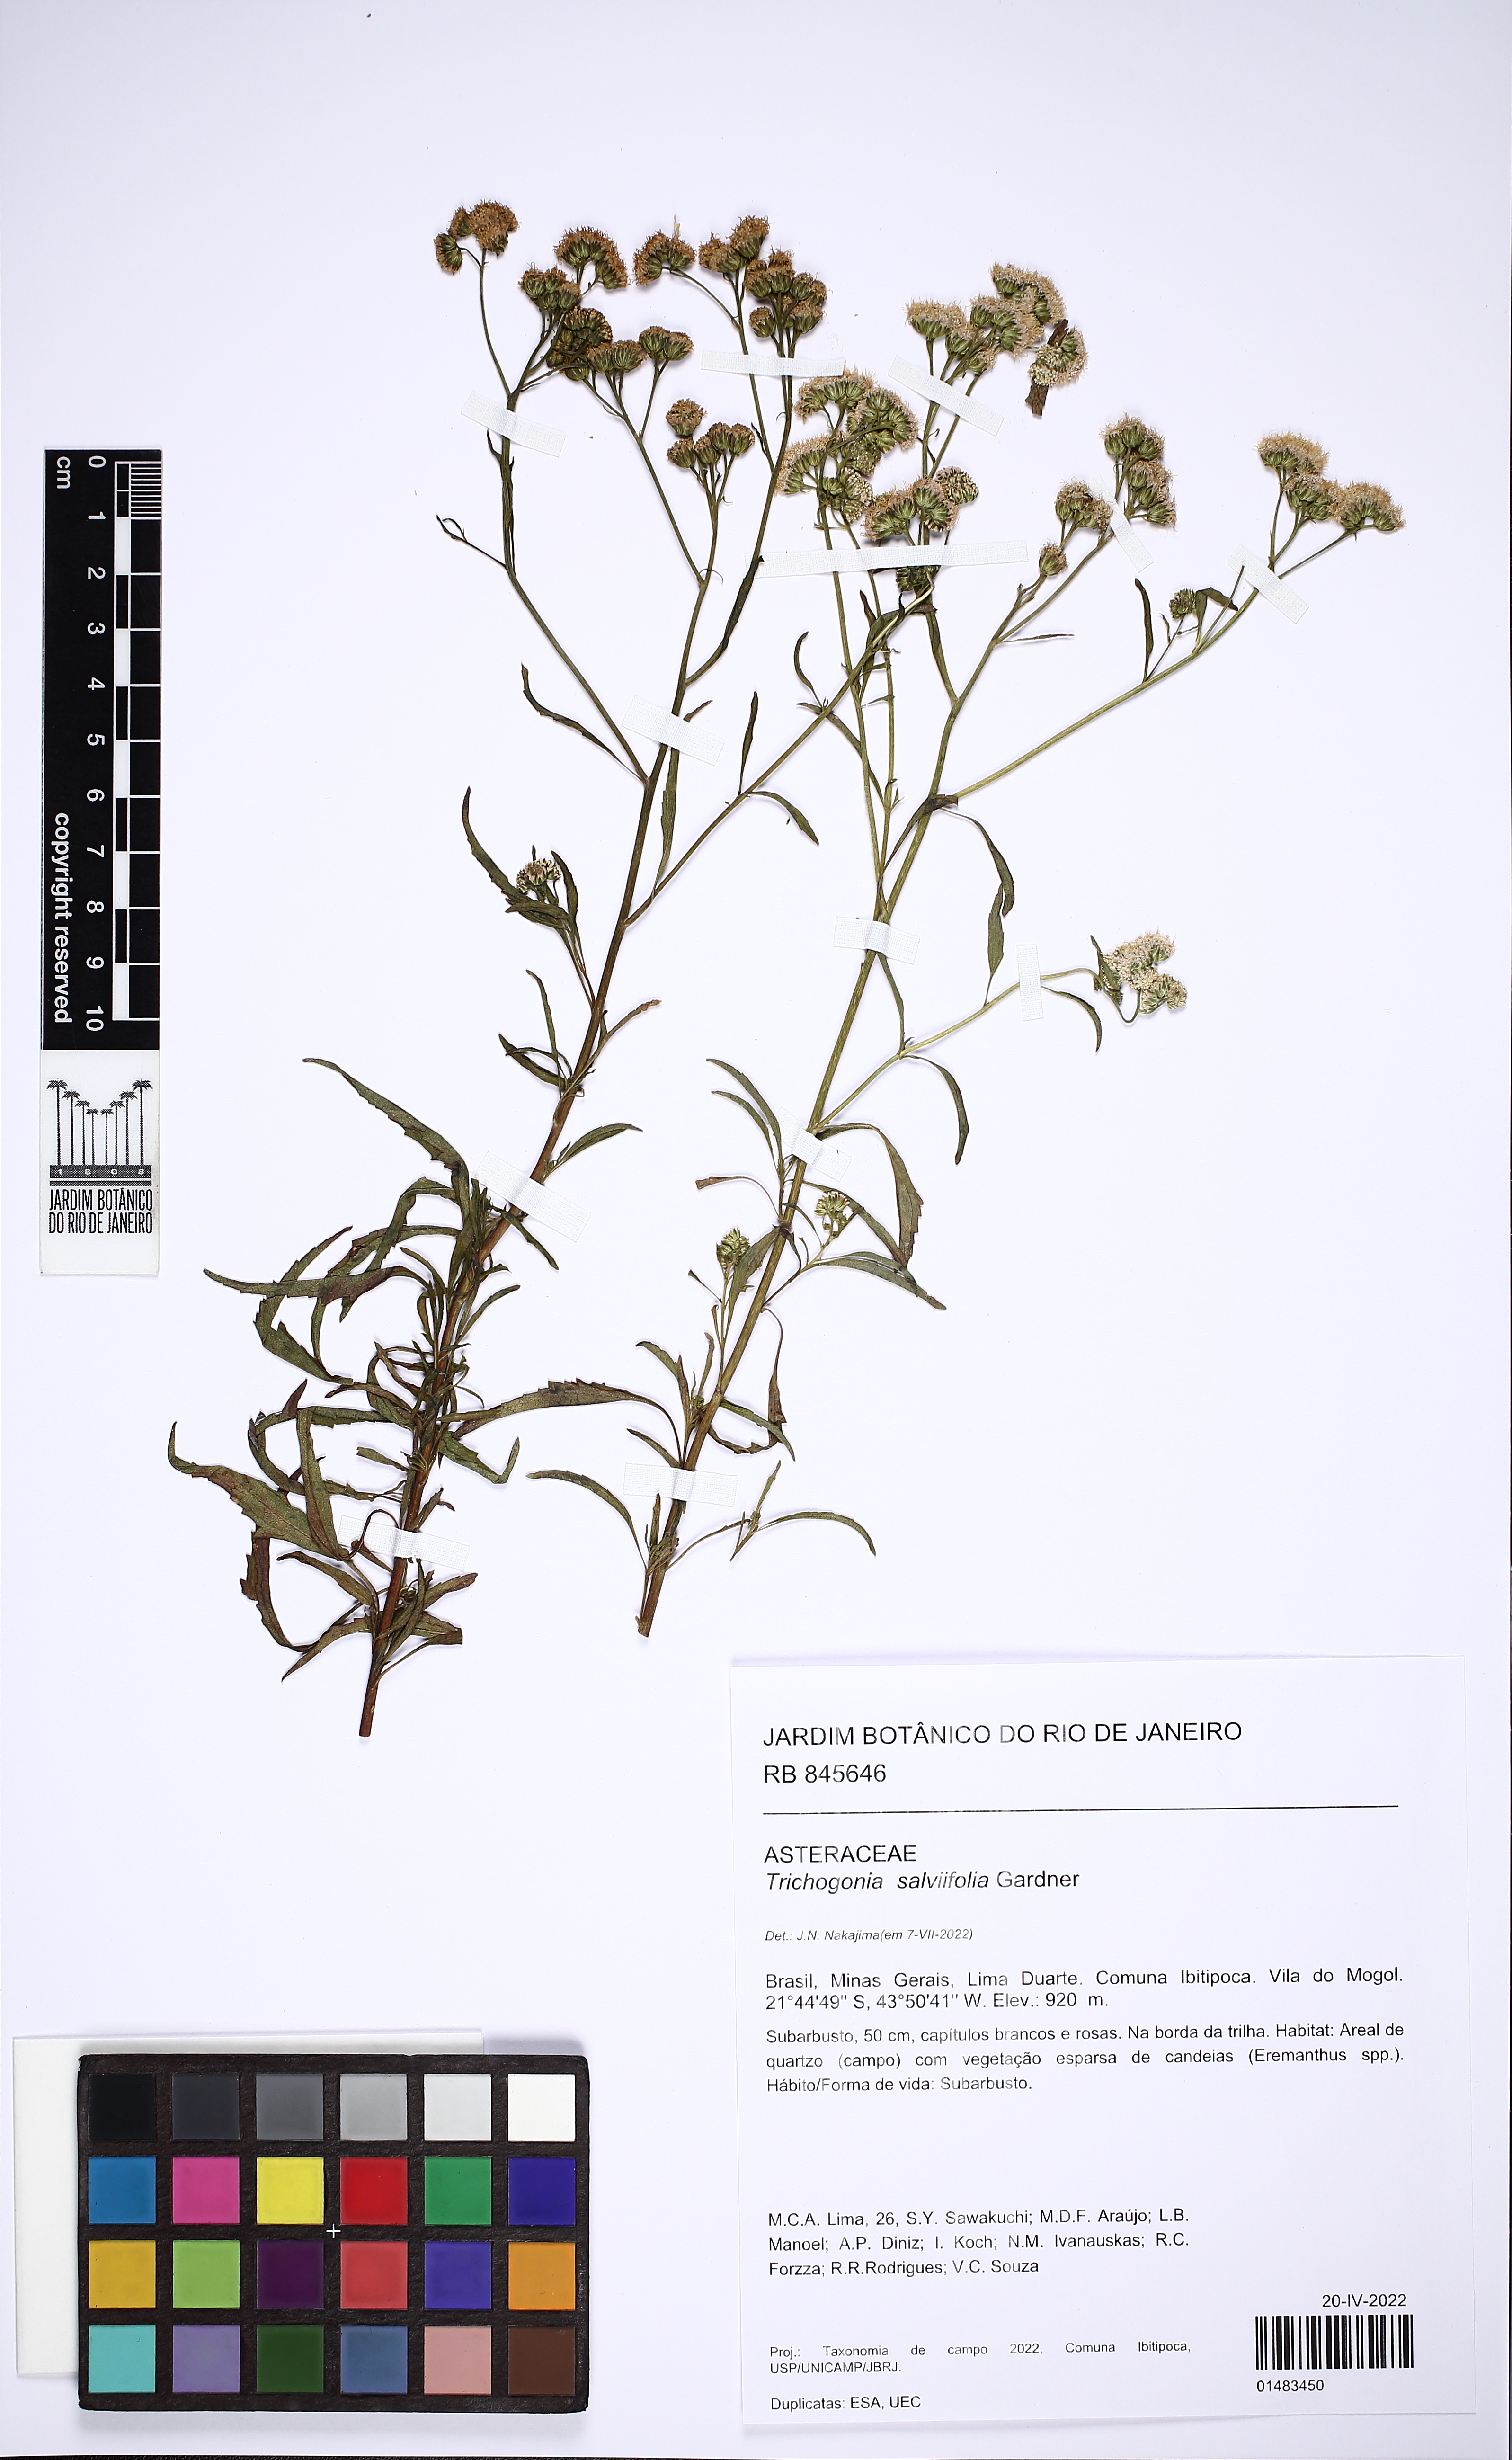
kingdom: Plantae
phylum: Tracheophyta
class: Magnoliopsida
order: Asterales
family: Asteraceae
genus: Trichogonia
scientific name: Trichogonia salviifolia
